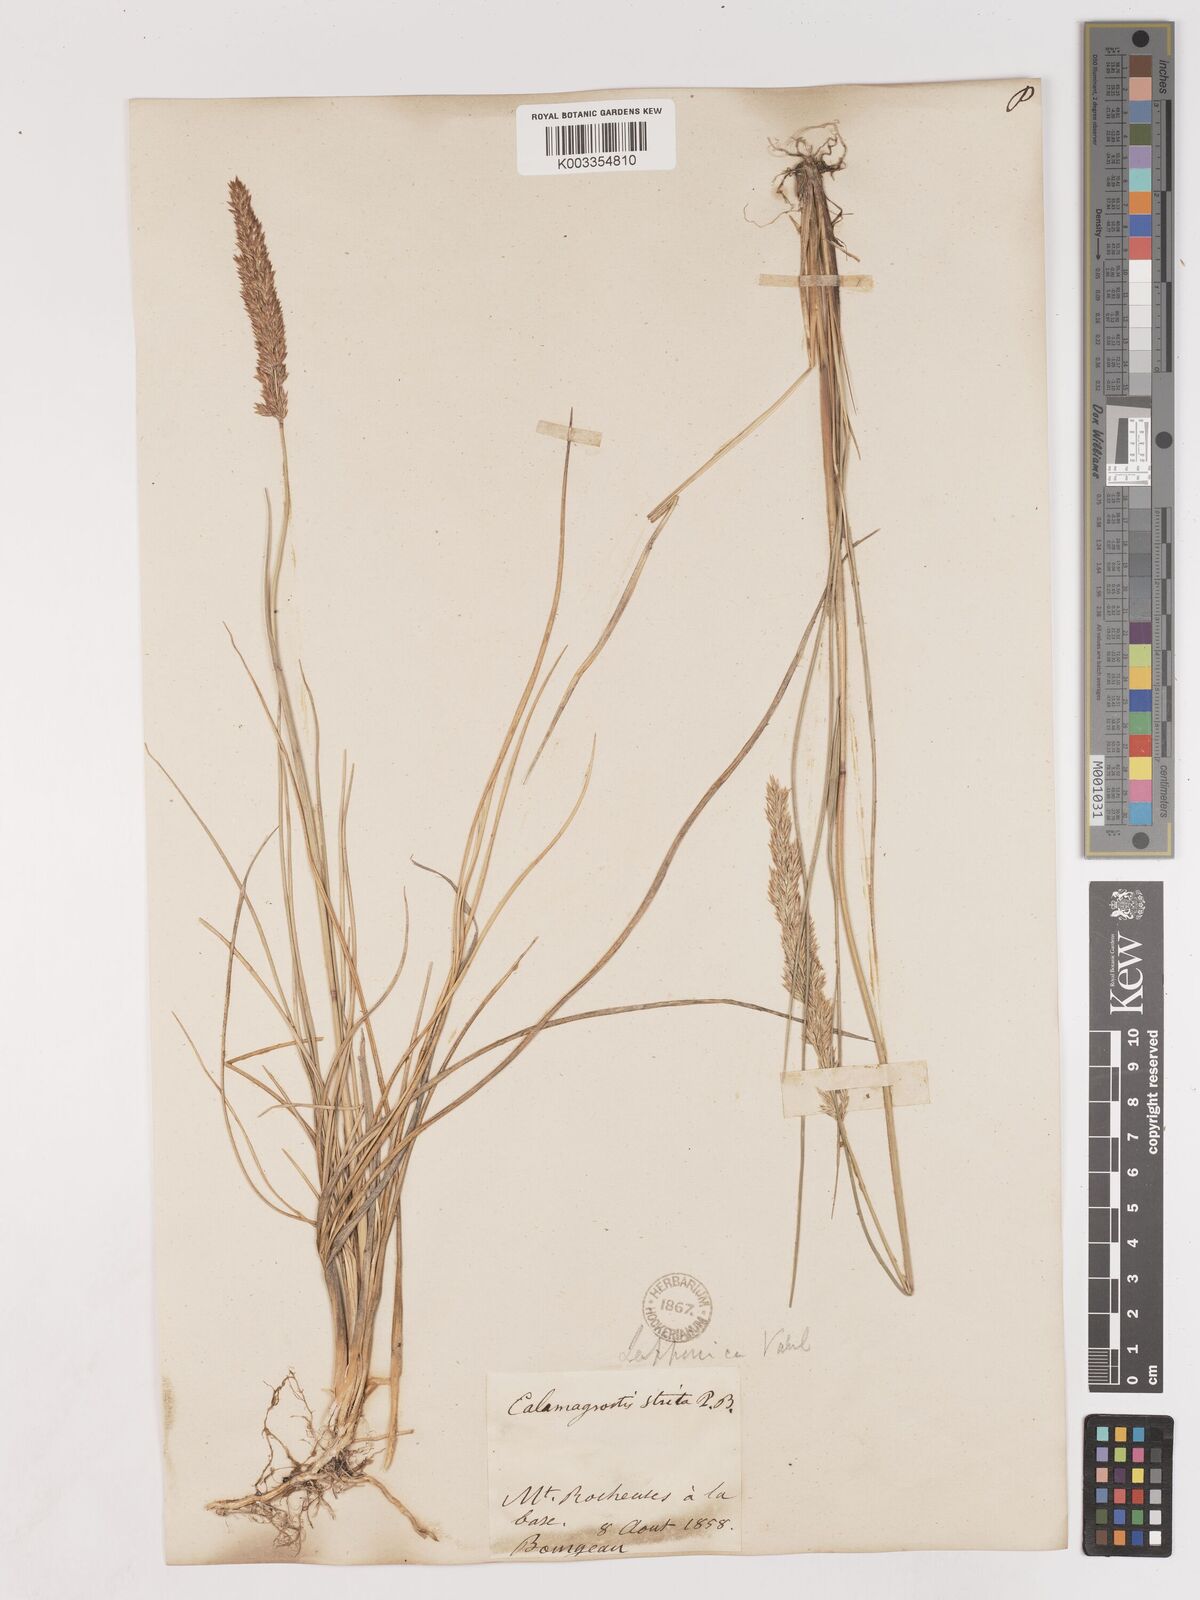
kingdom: Plantae
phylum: Tracheophyta
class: Liliopsida
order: Poales
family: Poaceae
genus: Calamagrostis
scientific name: Calamagrostis
